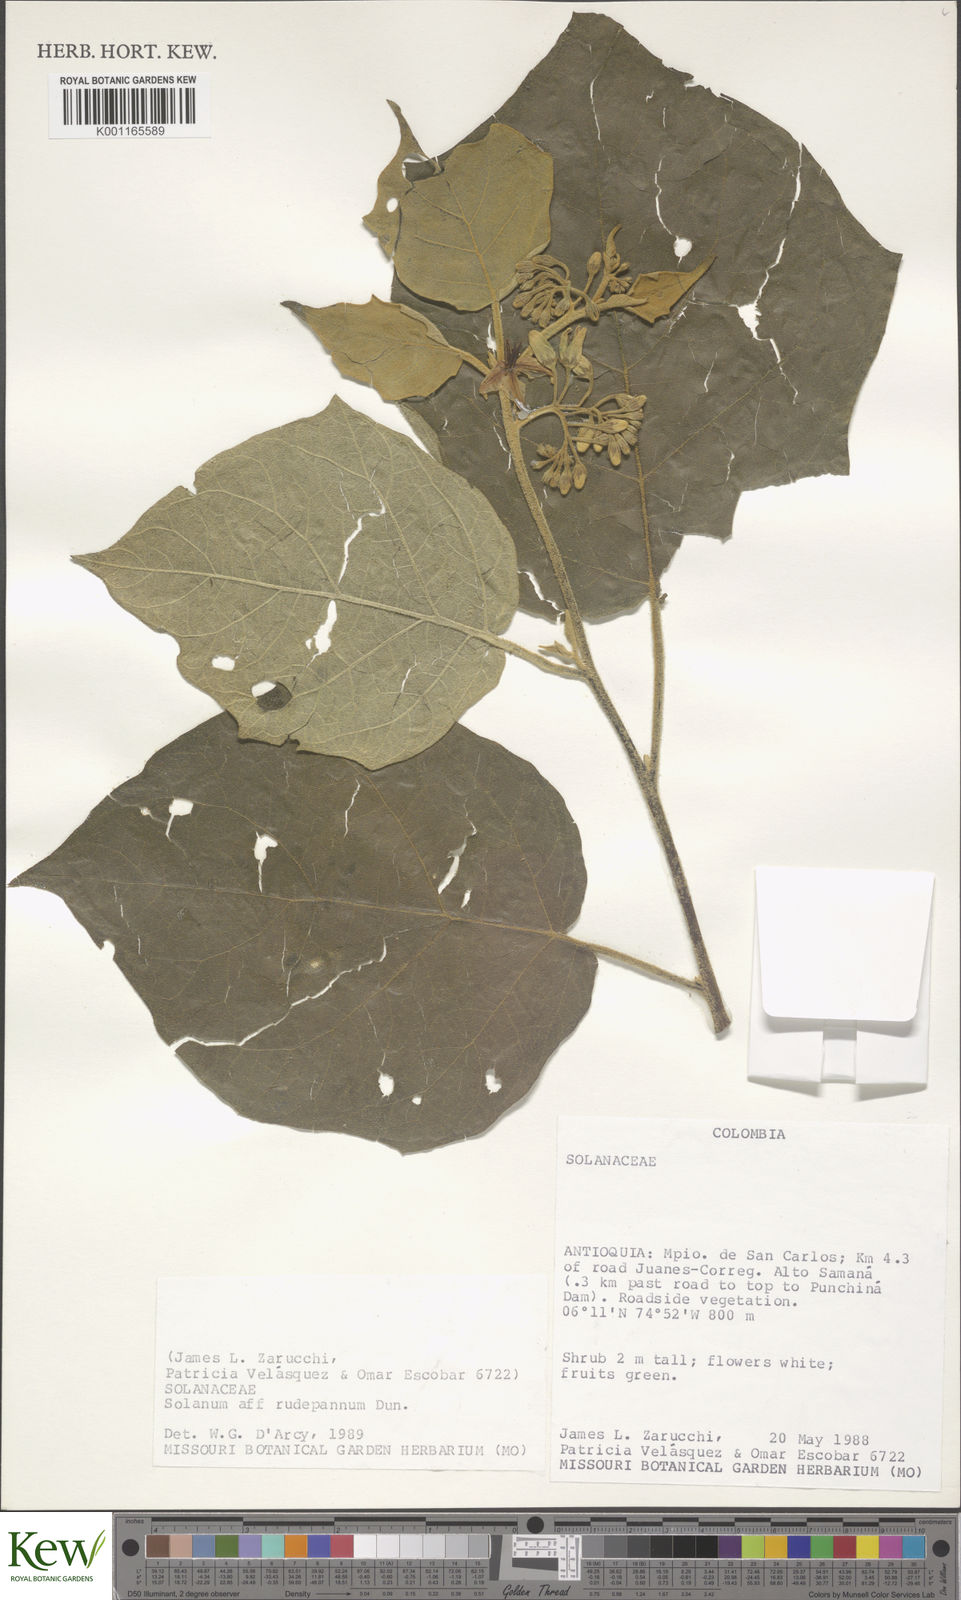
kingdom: Plantae
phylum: Tracheophyta
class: Magnoliopsida
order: Solanales
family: Solanaceae
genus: Solanum
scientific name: Solanum rude-pannum
